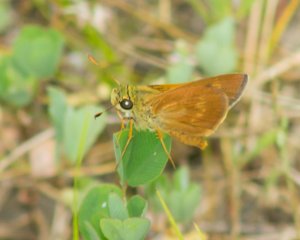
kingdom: Animalia
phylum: Arthropoda
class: Insecta
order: Lepidoptera
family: Hesperiidae
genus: Wallengrenia
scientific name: Wallengrenia otho
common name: Southern Broken-Dash
